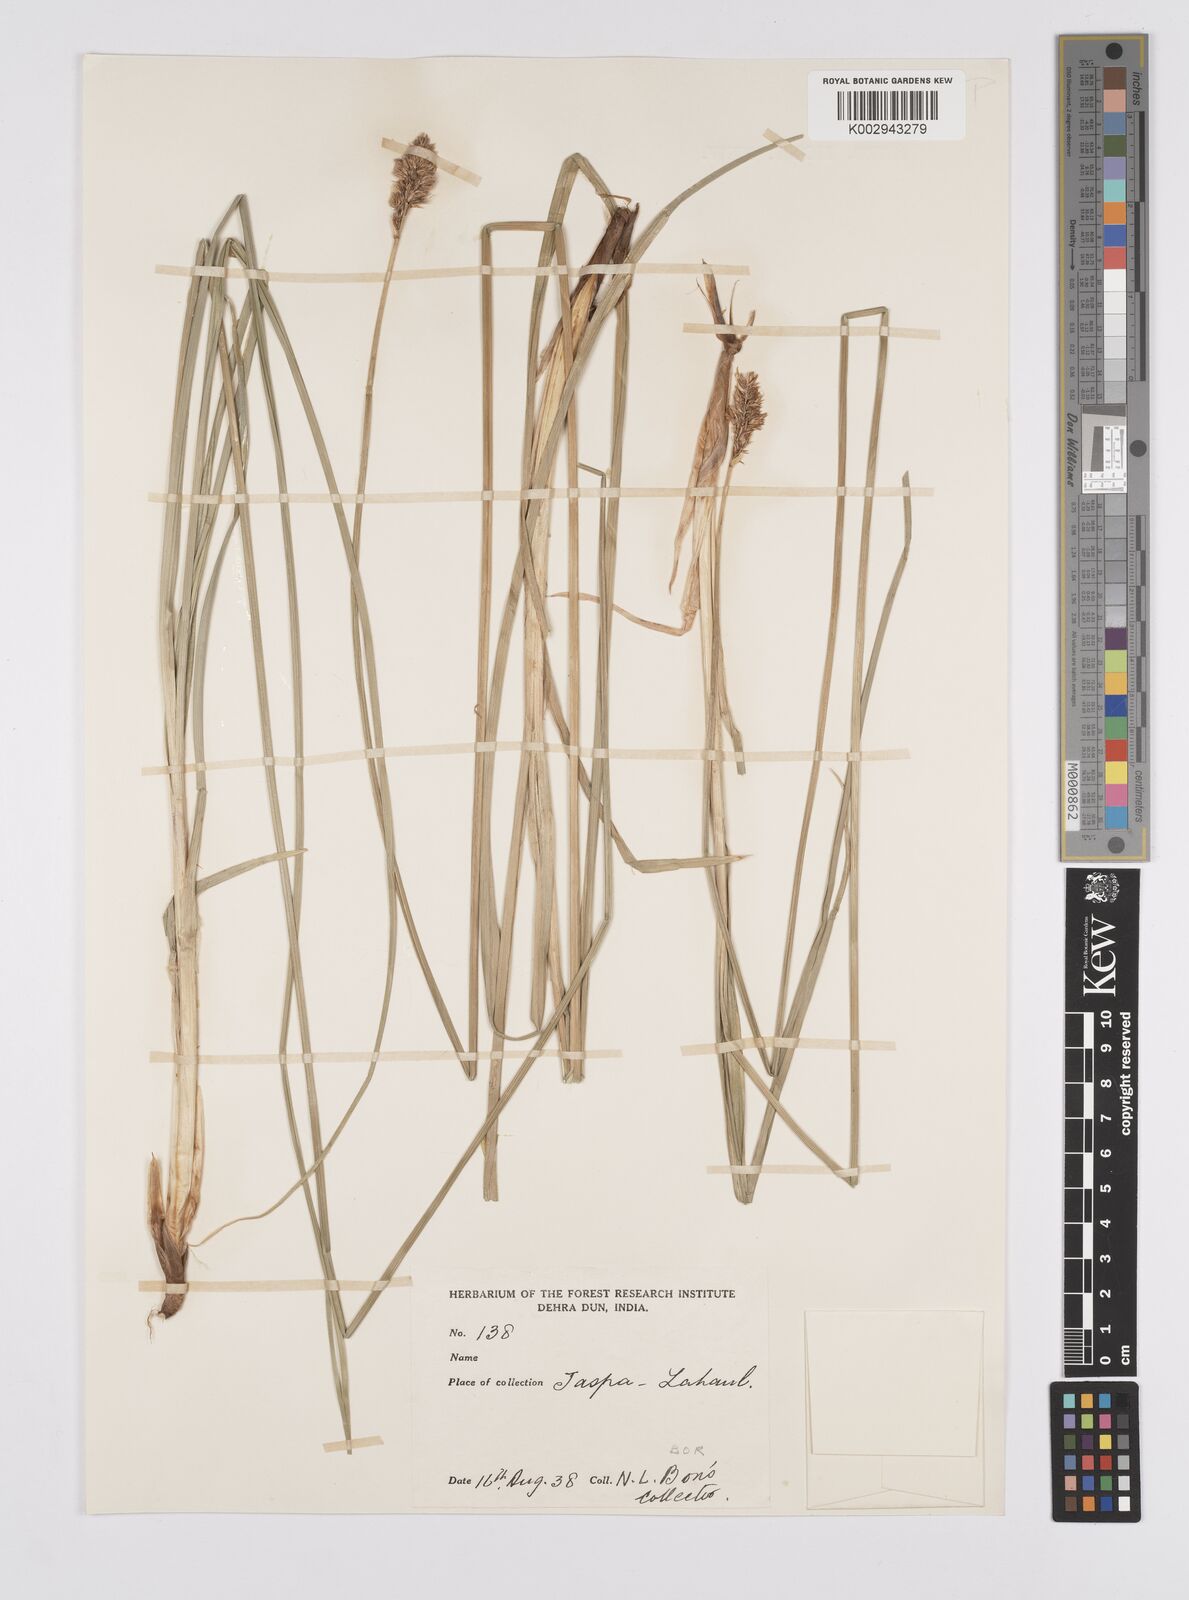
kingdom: Plantae
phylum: Tracheophyta
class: Liliopsida
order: Poales
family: Cyperaceae
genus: Carex
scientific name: Carex vulpinaris
